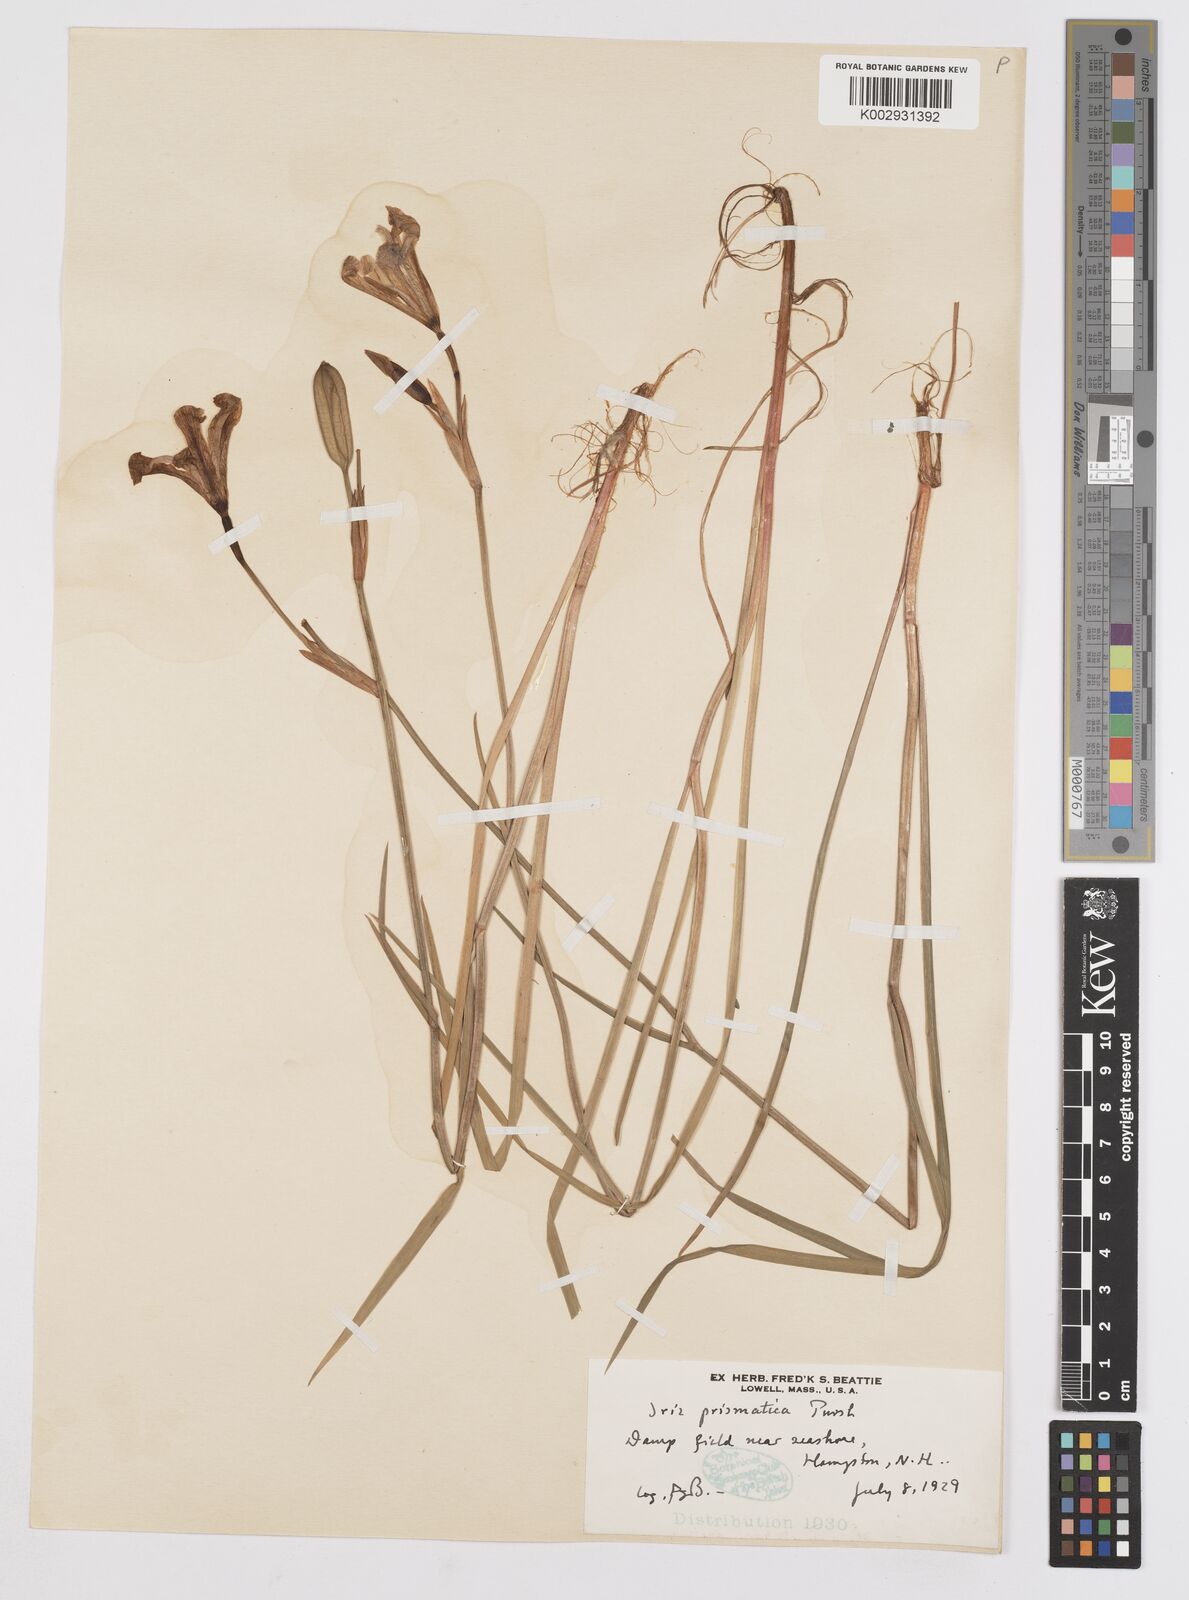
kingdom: Plantae
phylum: Tracheophyta
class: Liliopsida
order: Asparagales
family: Iridaceae
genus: Iris
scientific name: Iris prismatica
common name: Slender blue flag
